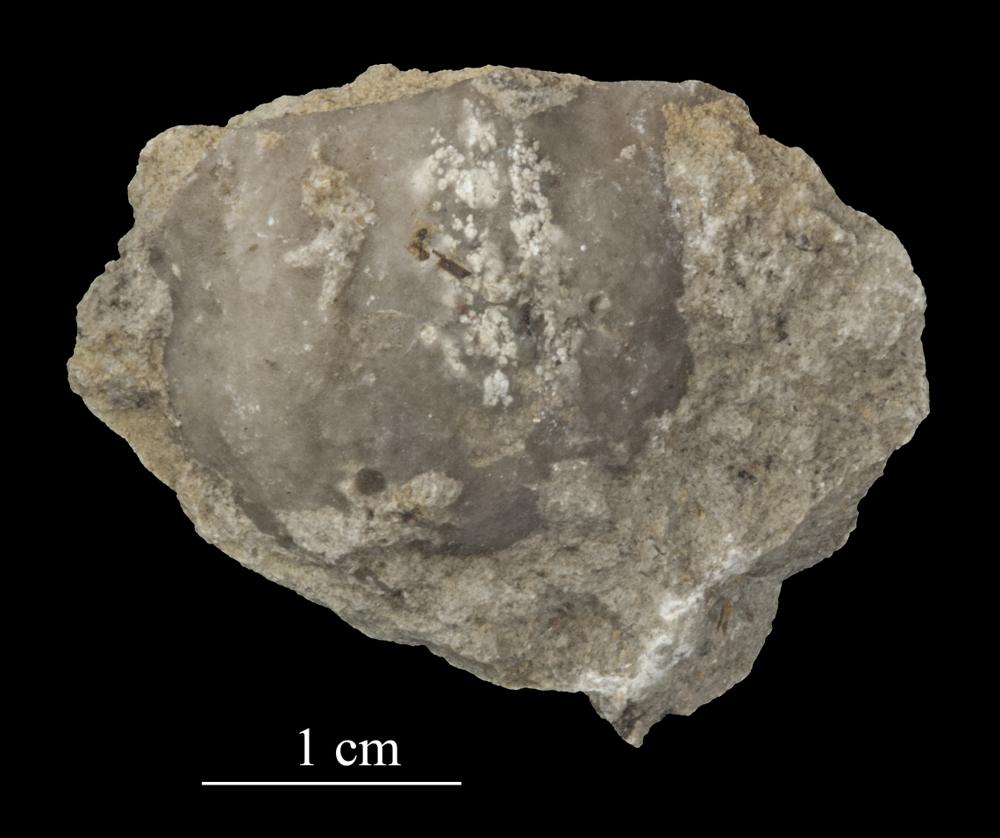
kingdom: Animalia
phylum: Brachiopoda
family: Strophomenidae
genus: Tallinnites
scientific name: Tallinnites Oepikina imbrexoidea
